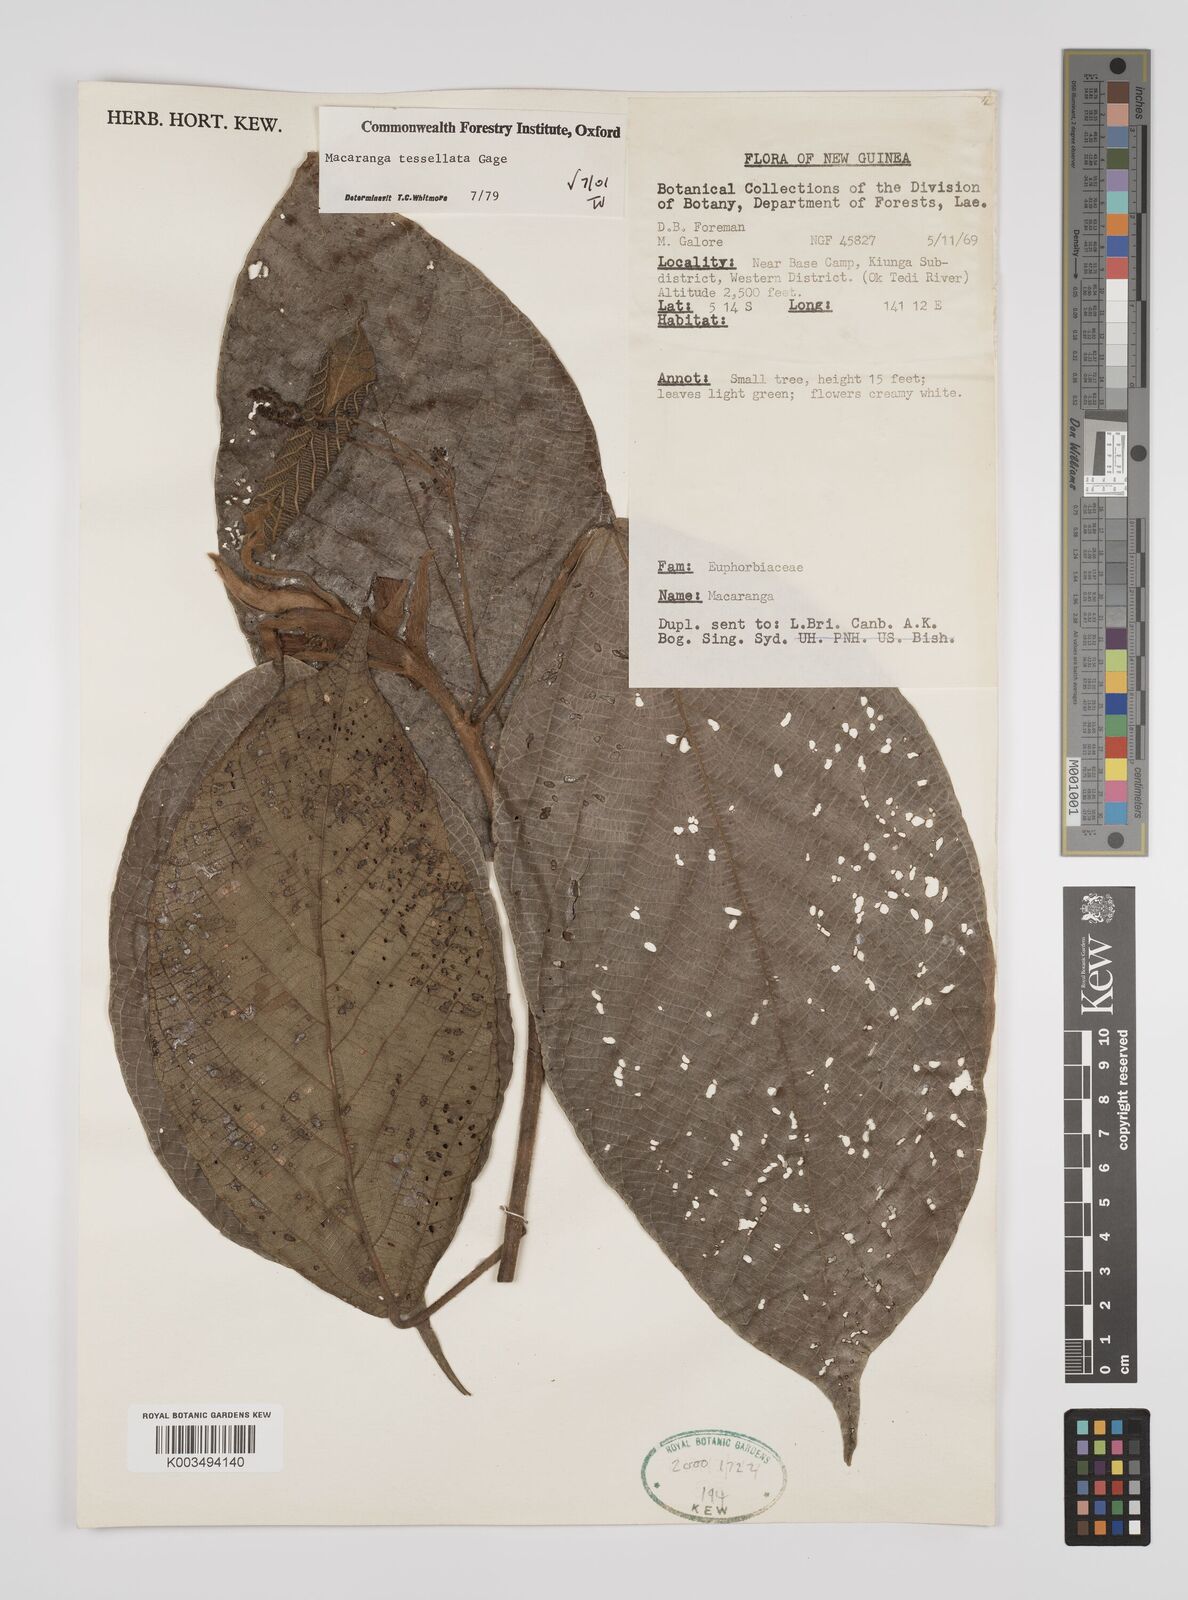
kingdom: Plantae
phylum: Tracheophyta
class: Magnoliopsida
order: Malpighiales
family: Euphorbiaceae
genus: Macaranga
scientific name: Macaranga aleuritoides
